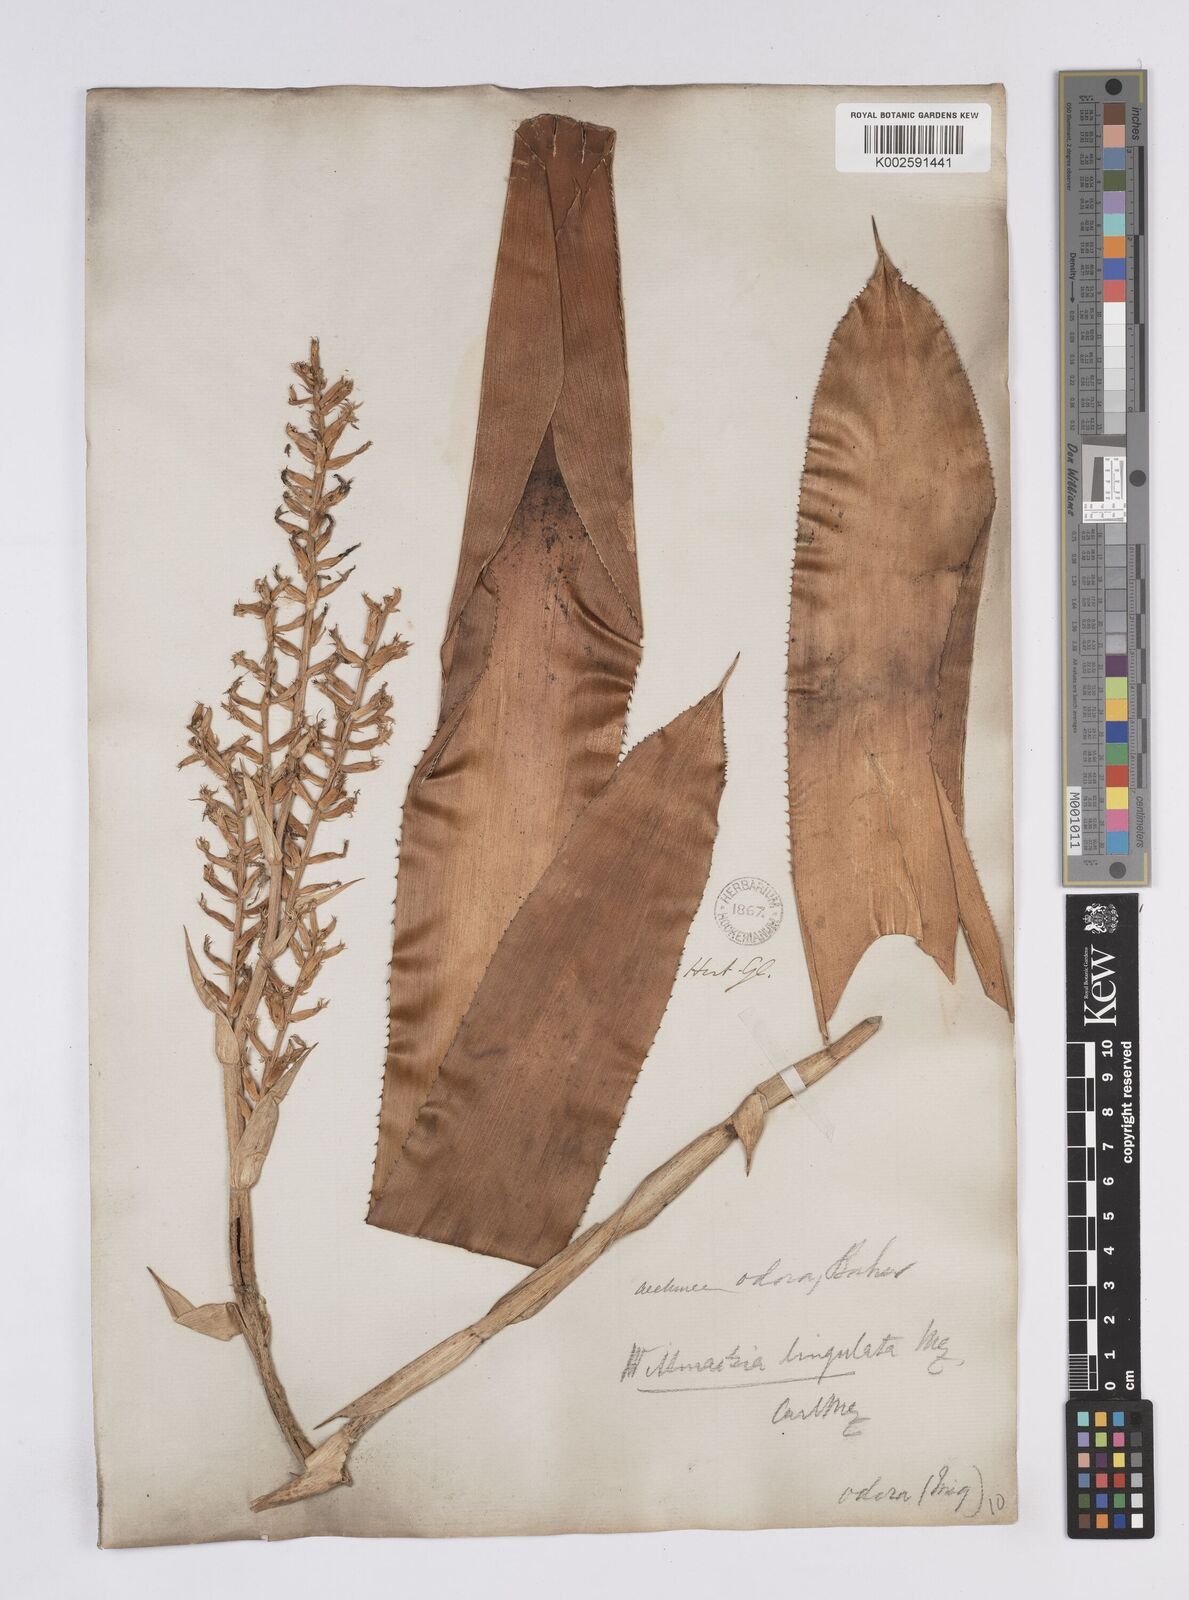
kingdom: Plantae
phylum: Tracheophyta
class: Liliopsida
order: Poales
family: Bromeliaceae
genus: Wittmackia
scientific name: Wittmackia lingulata
